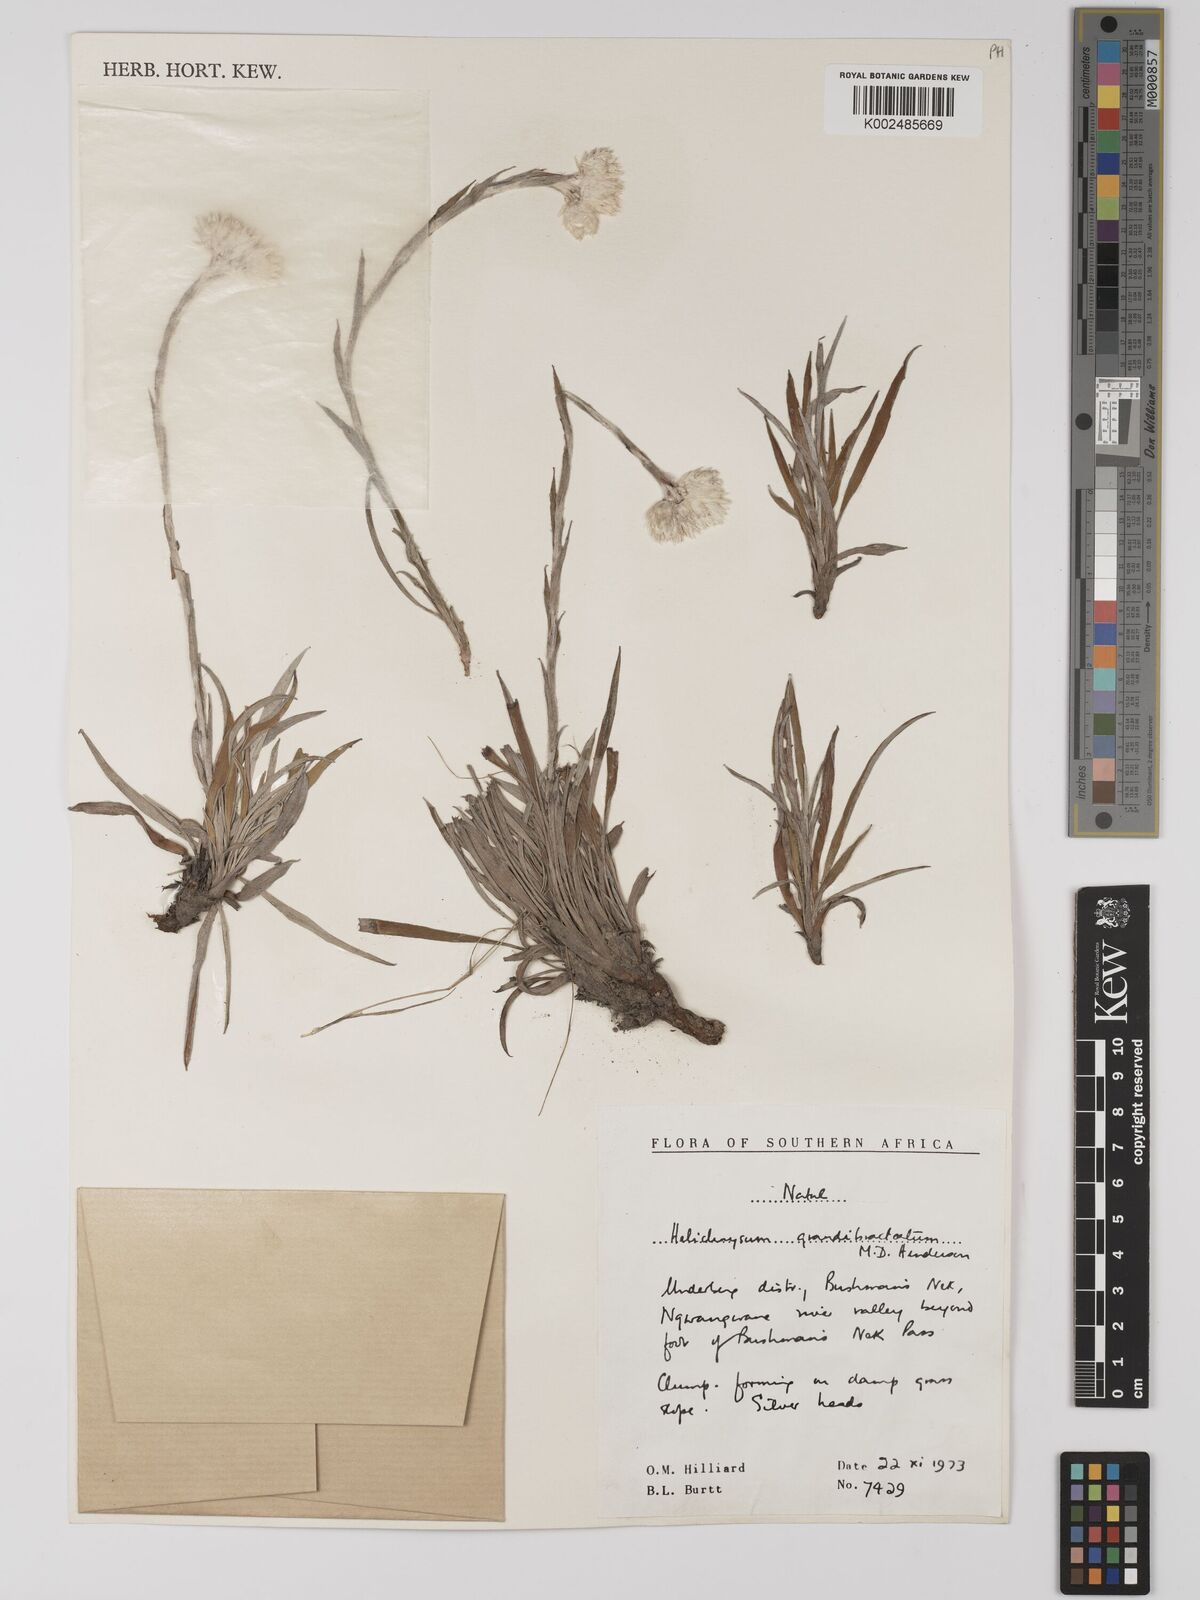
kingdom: Plantae
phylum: Tracheophyta
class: Magnoliopsida
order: Asterales
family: Asteraceae
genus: Helichrysum
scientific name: Helichrysum grandibracteatum
